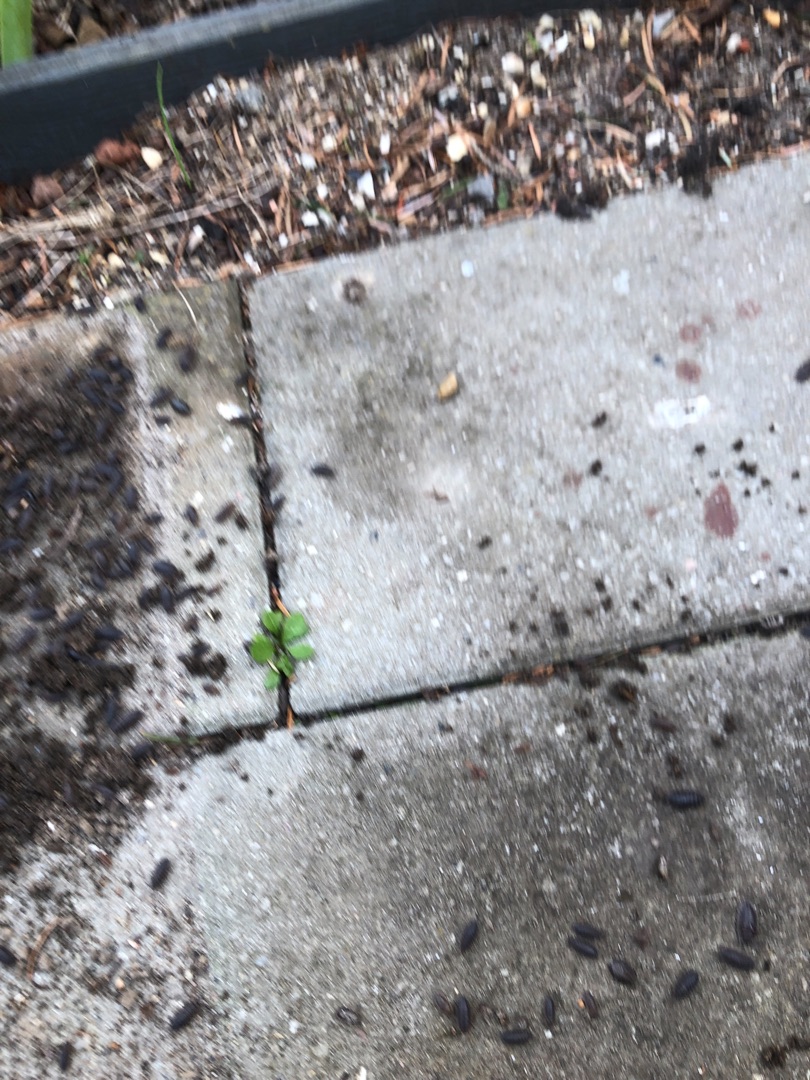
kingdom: Animalia
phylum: Arthropoda
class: Malacostraca
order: Isopoda
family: Porcellionidae
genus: Porcellio
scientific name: Porcellio scaber
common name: Grå bænkebider
